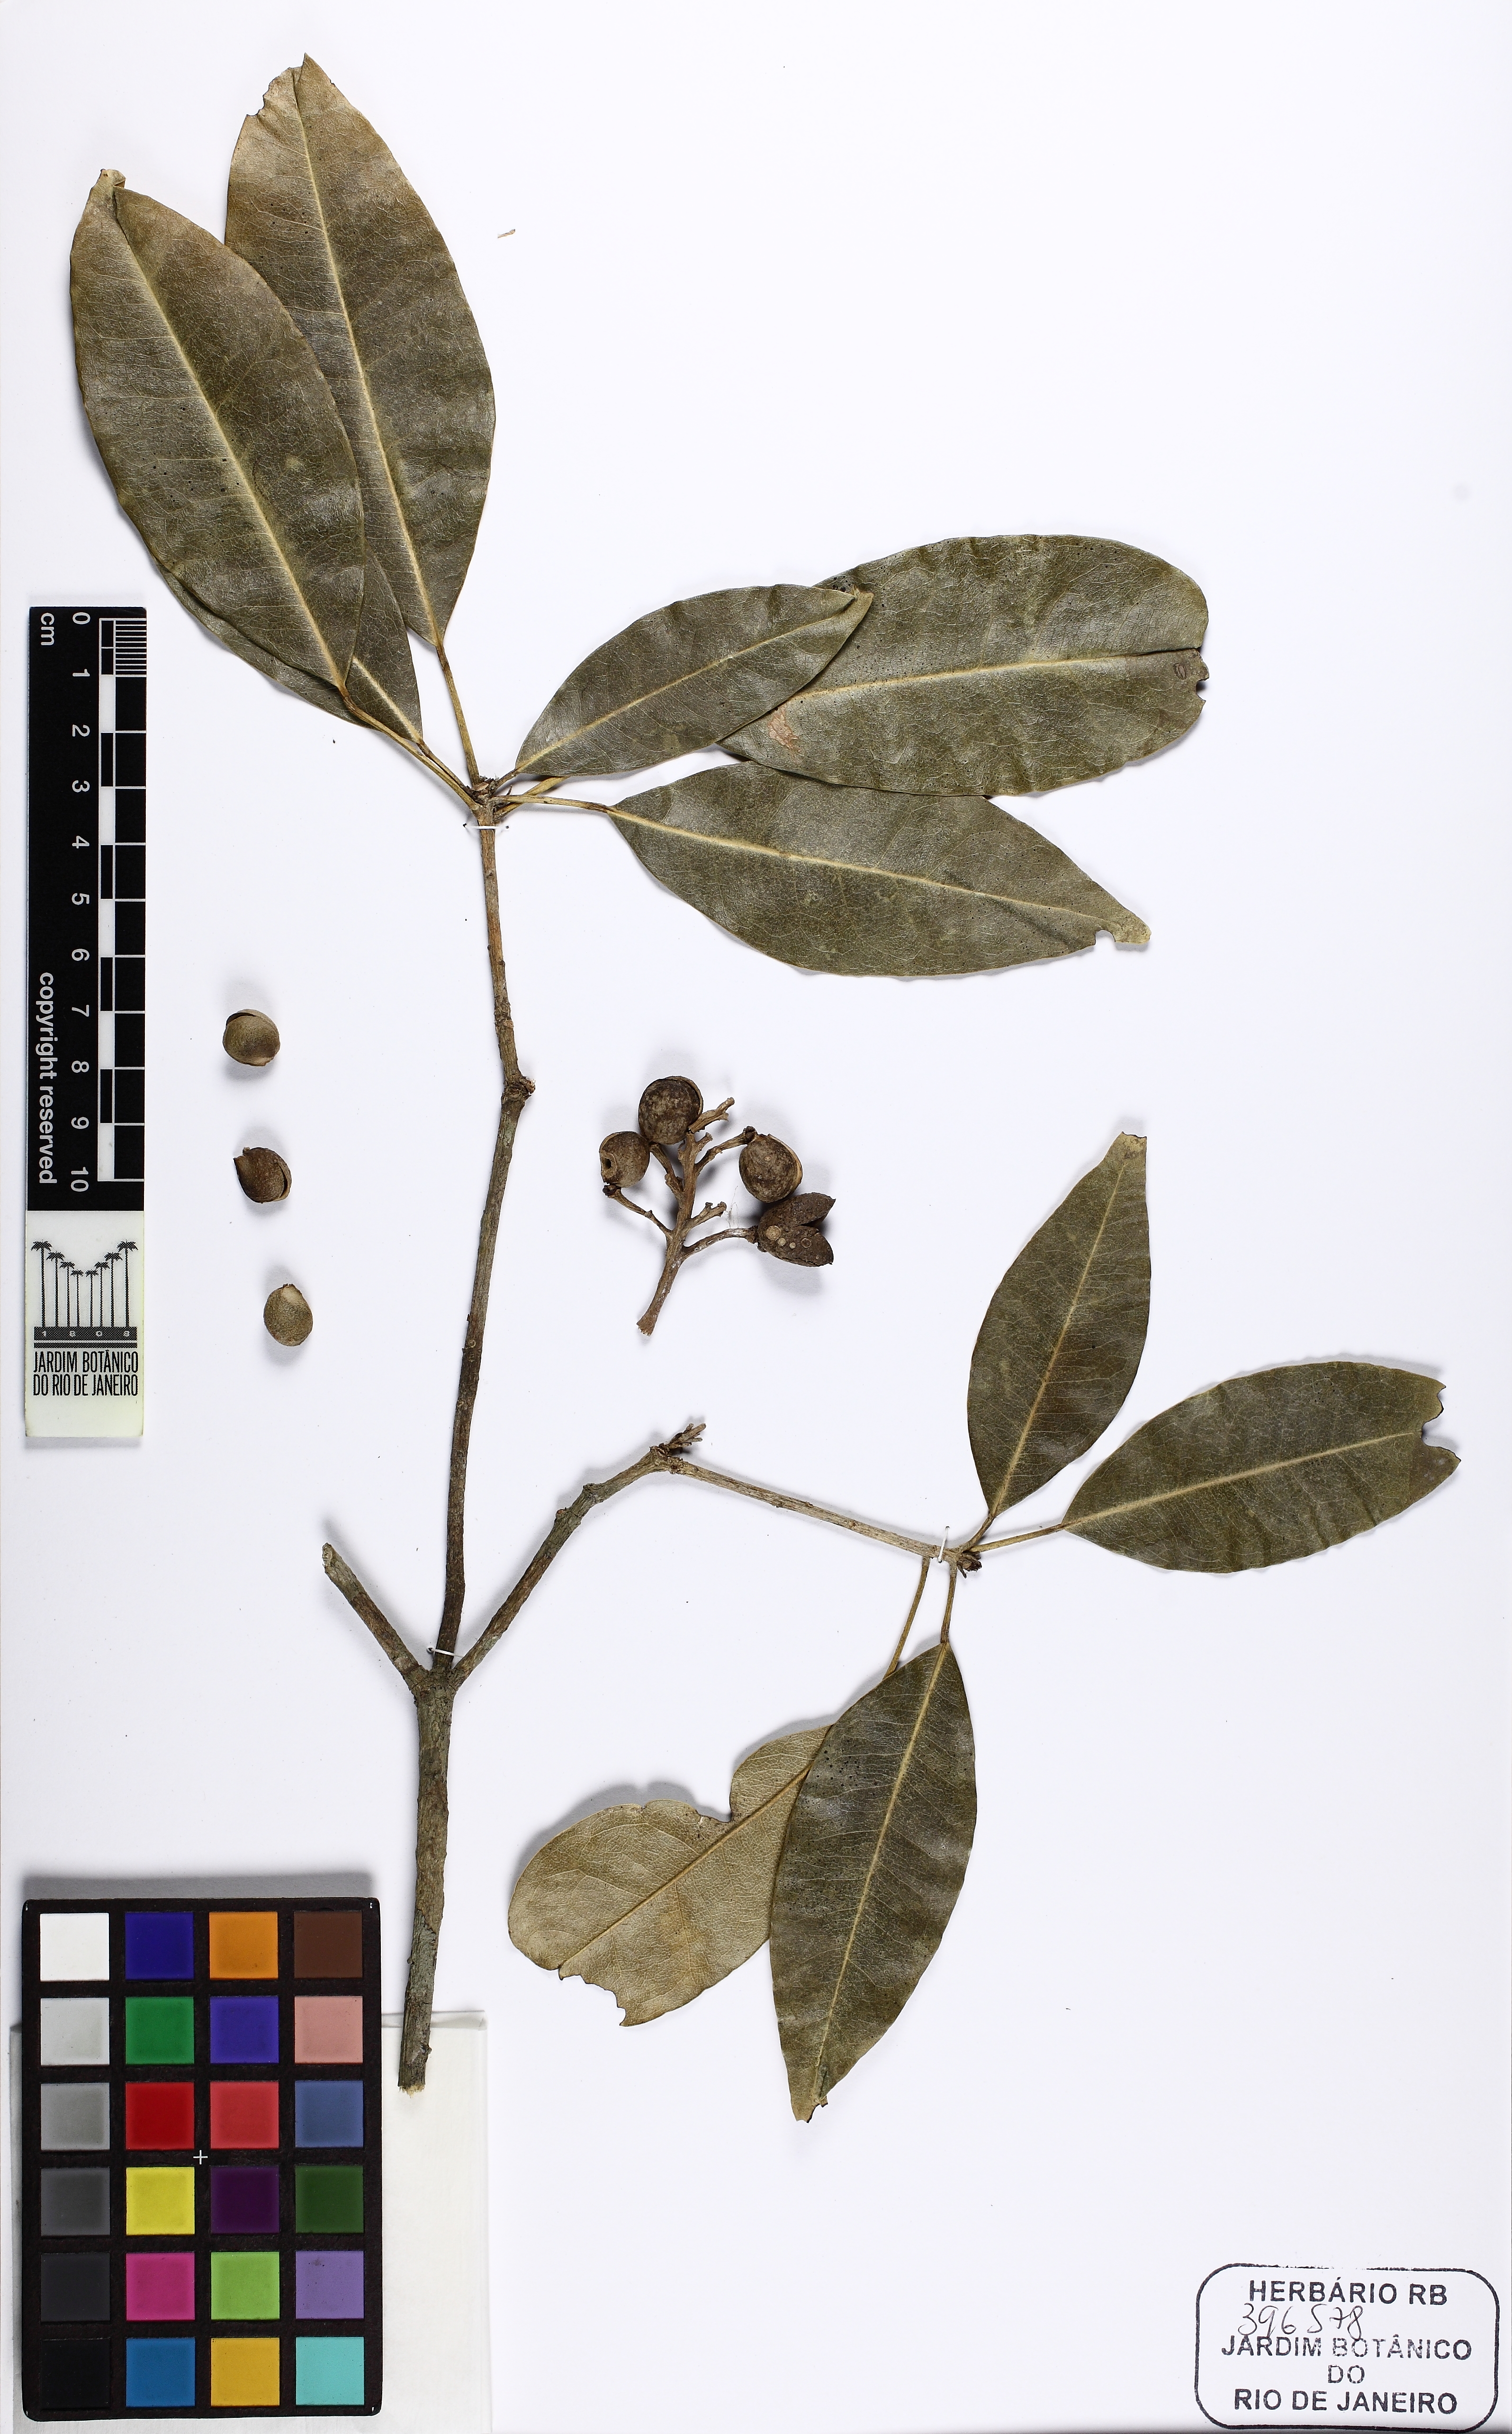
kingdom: Plantae
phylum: Tracheophyta
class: Magnoliopsida
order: Sapindales
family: Rutaceae
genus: Conchocarpus
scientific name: Conchocarpus ruber
